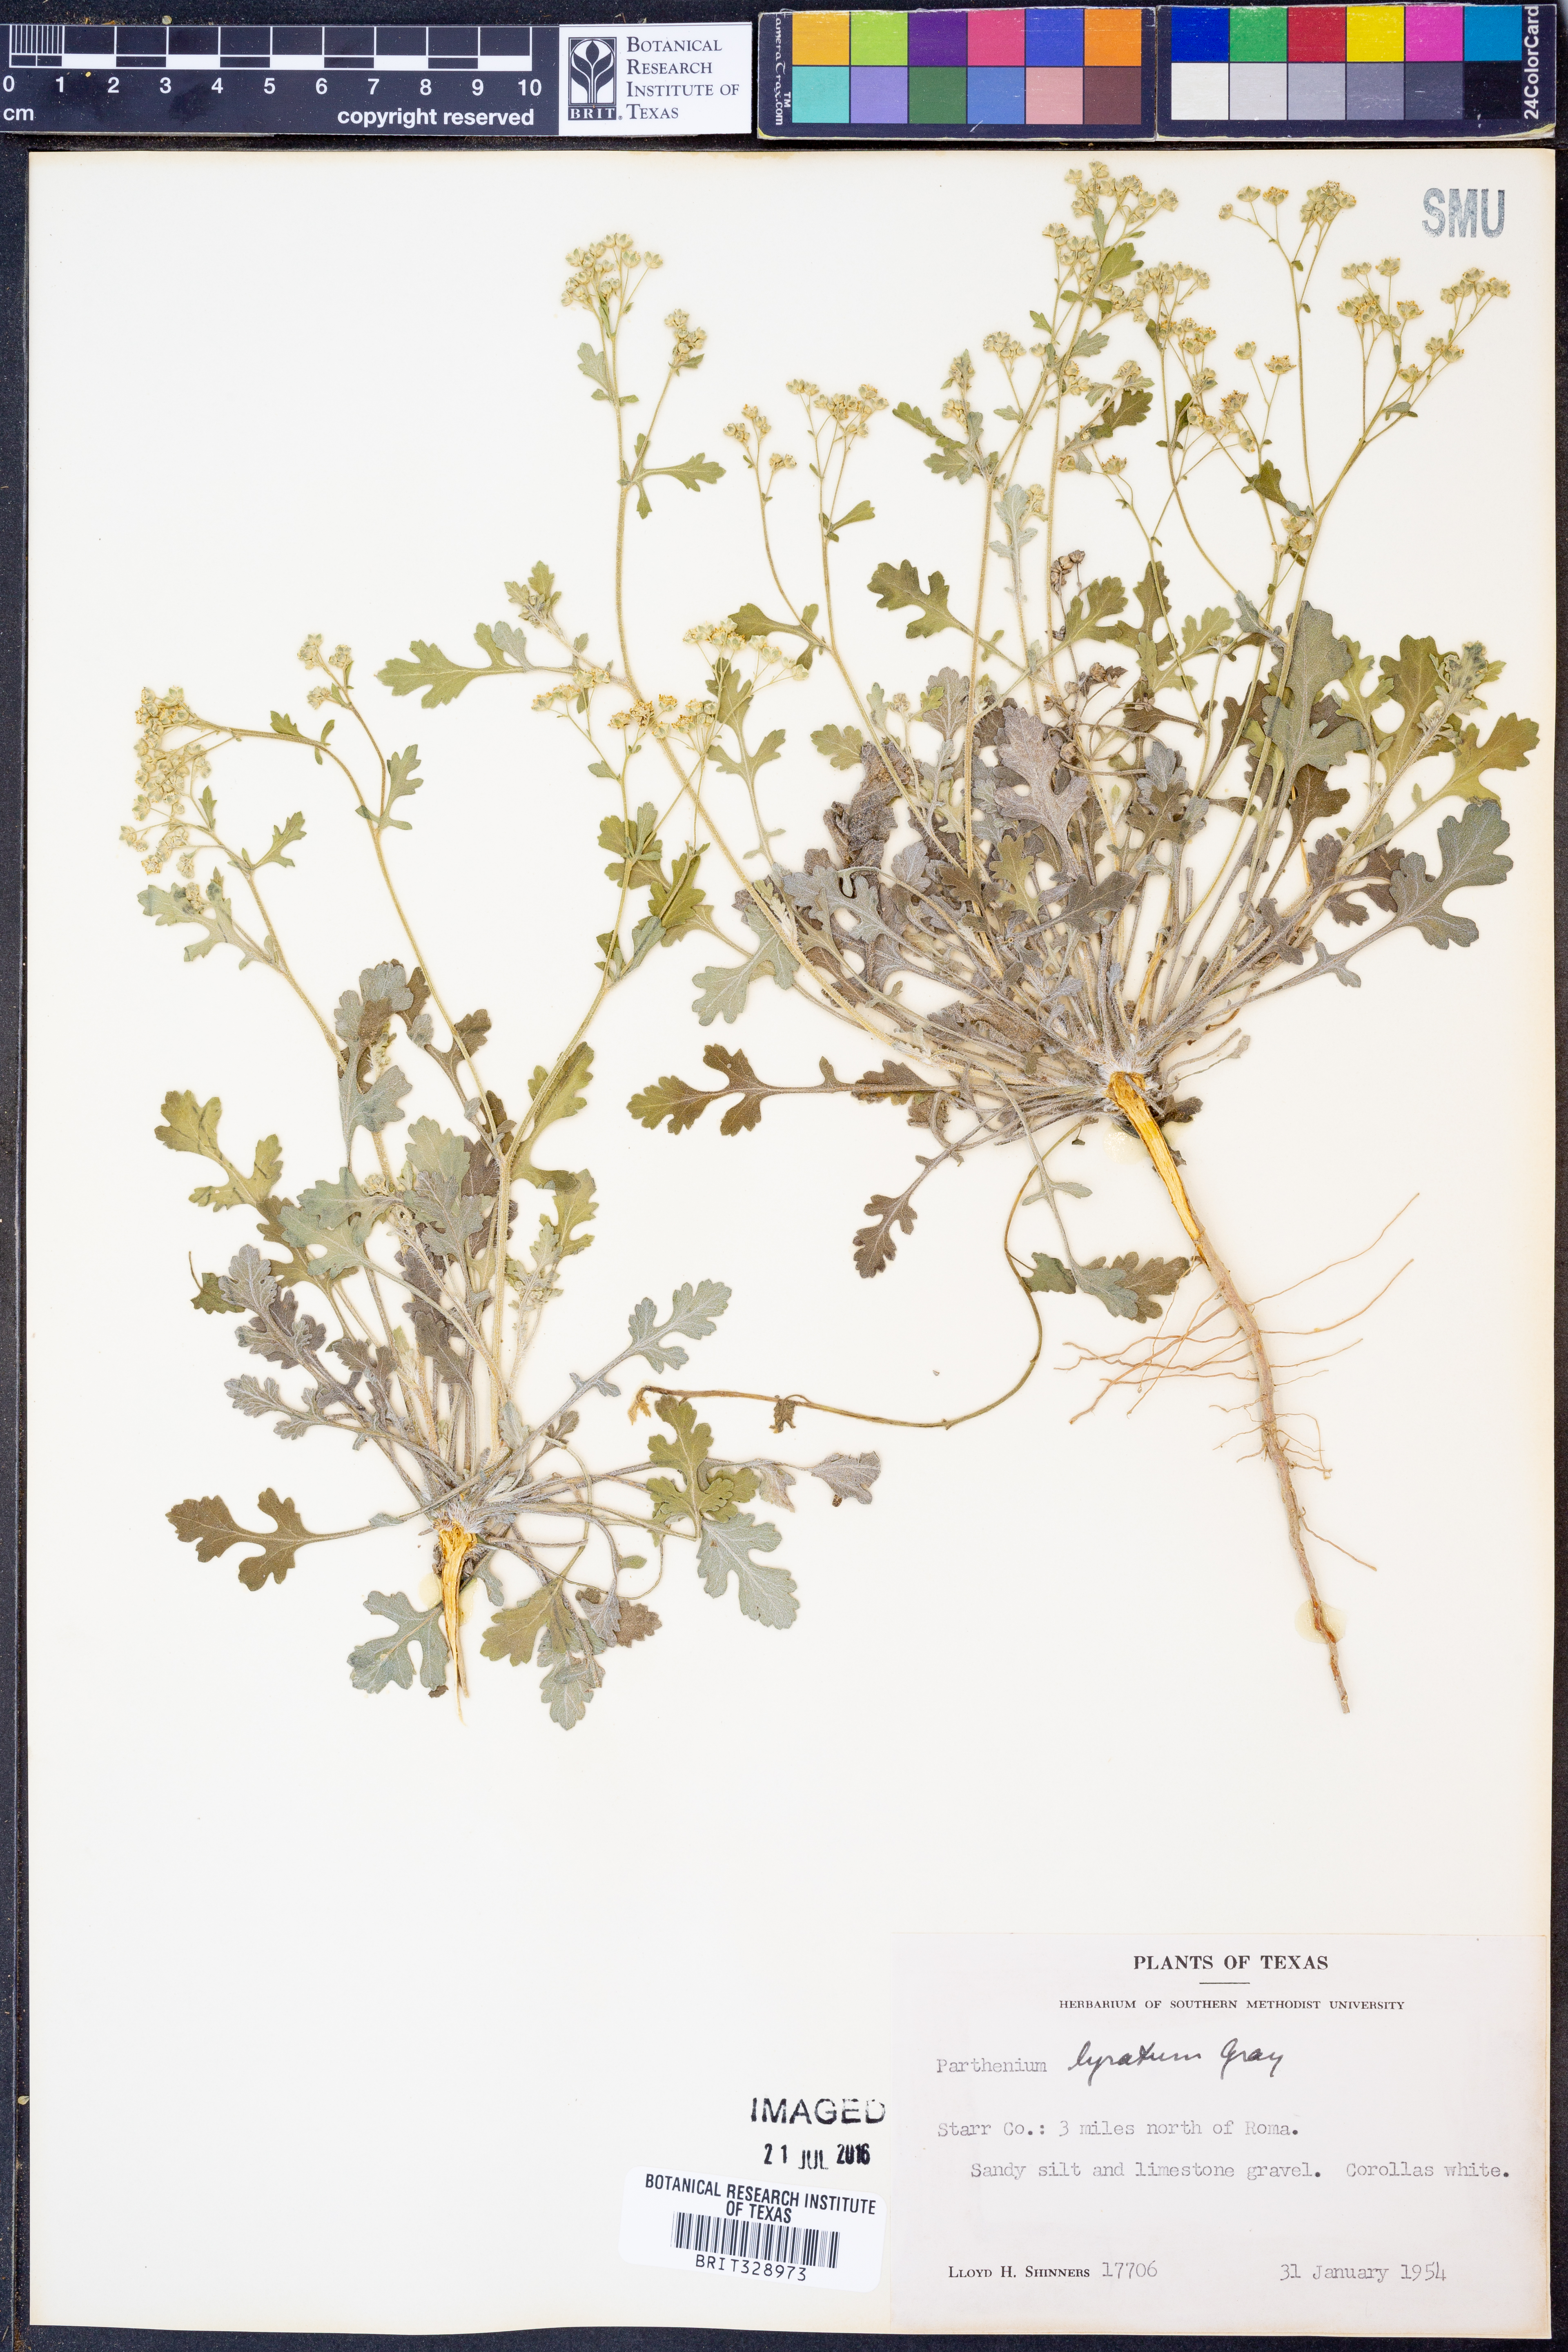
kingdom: Plantae
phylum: Tracheophyta
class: Magnoliopsida
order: Asterales
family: Asteraceae
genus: Parthenium
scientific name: Parthenium confertum
